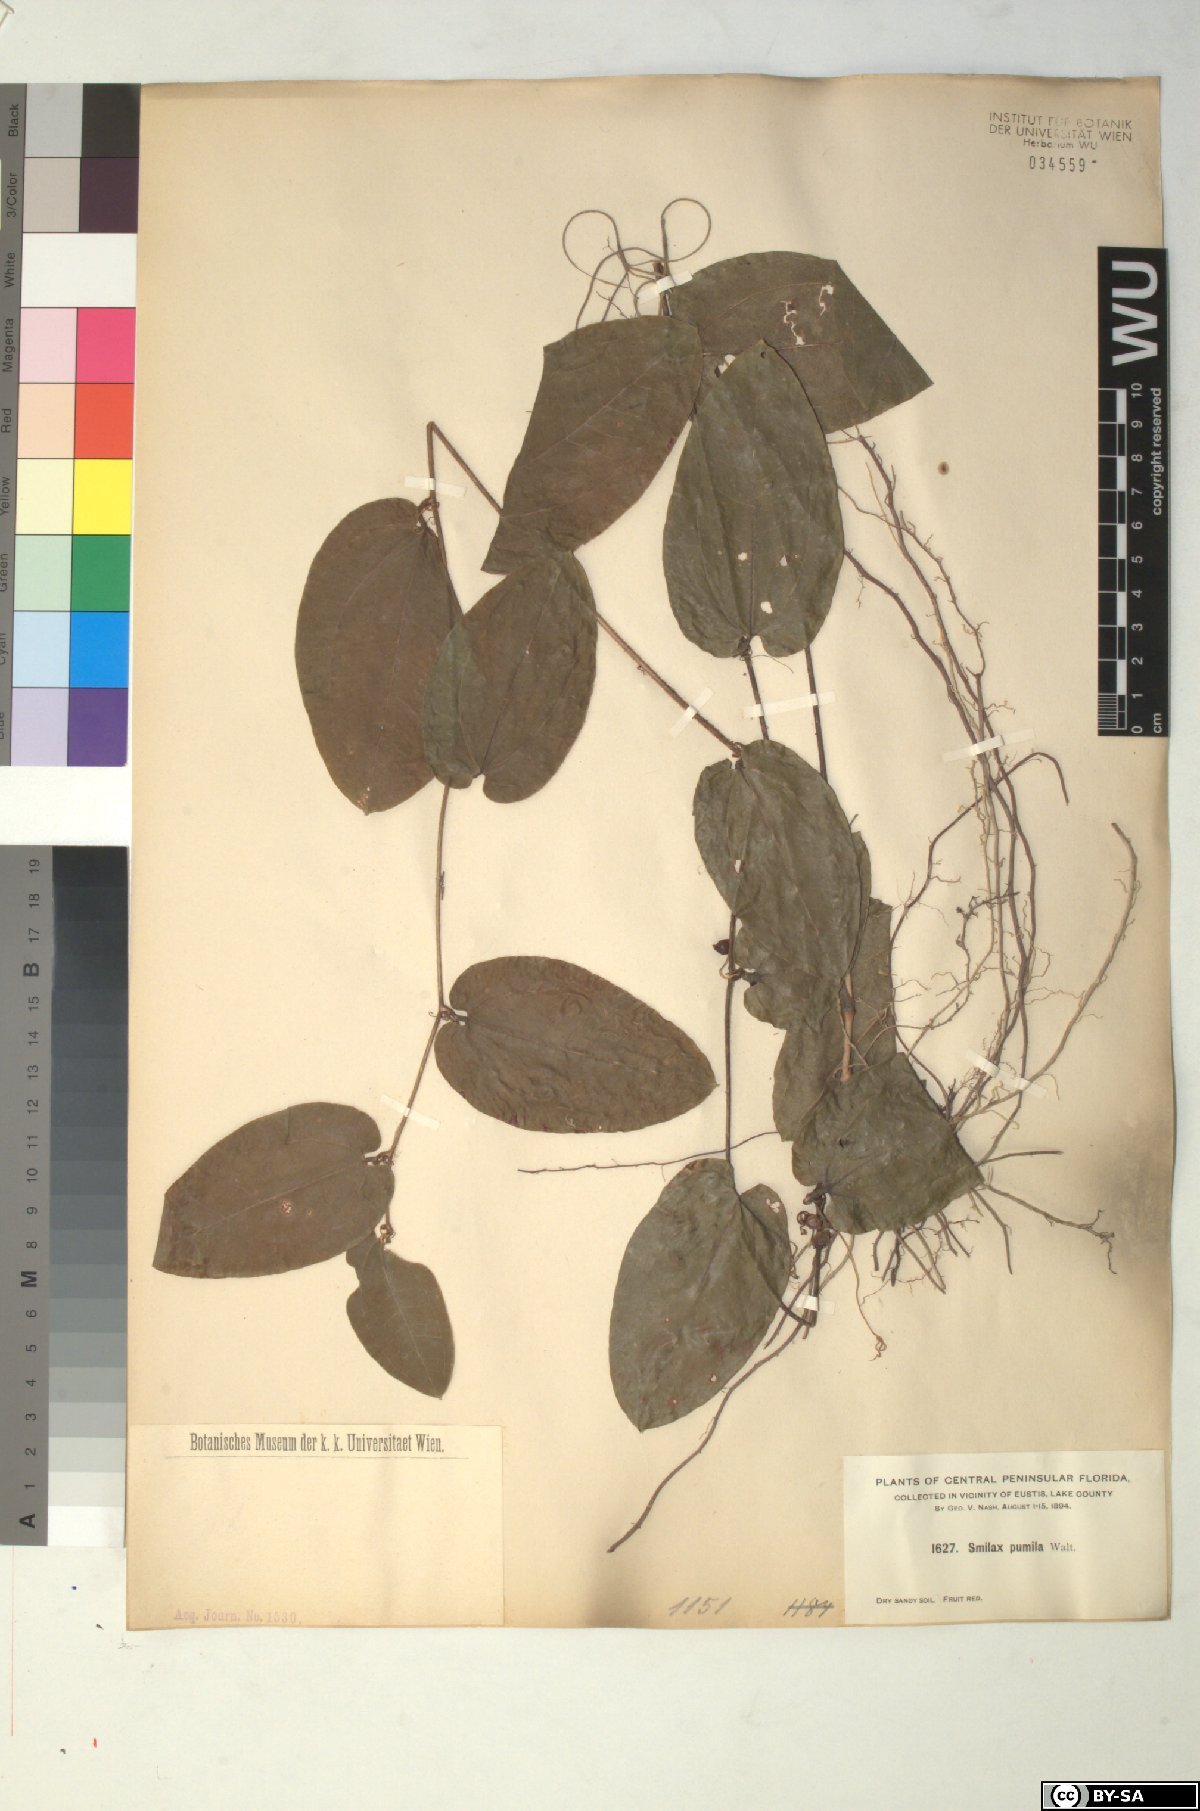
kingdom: Plantae
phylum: Tracheophyta
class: Liliopsida
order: Liliales
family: Smilacaceae
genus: Smilax
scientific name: Smilax pumila
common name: Sarsaparilla-vine
